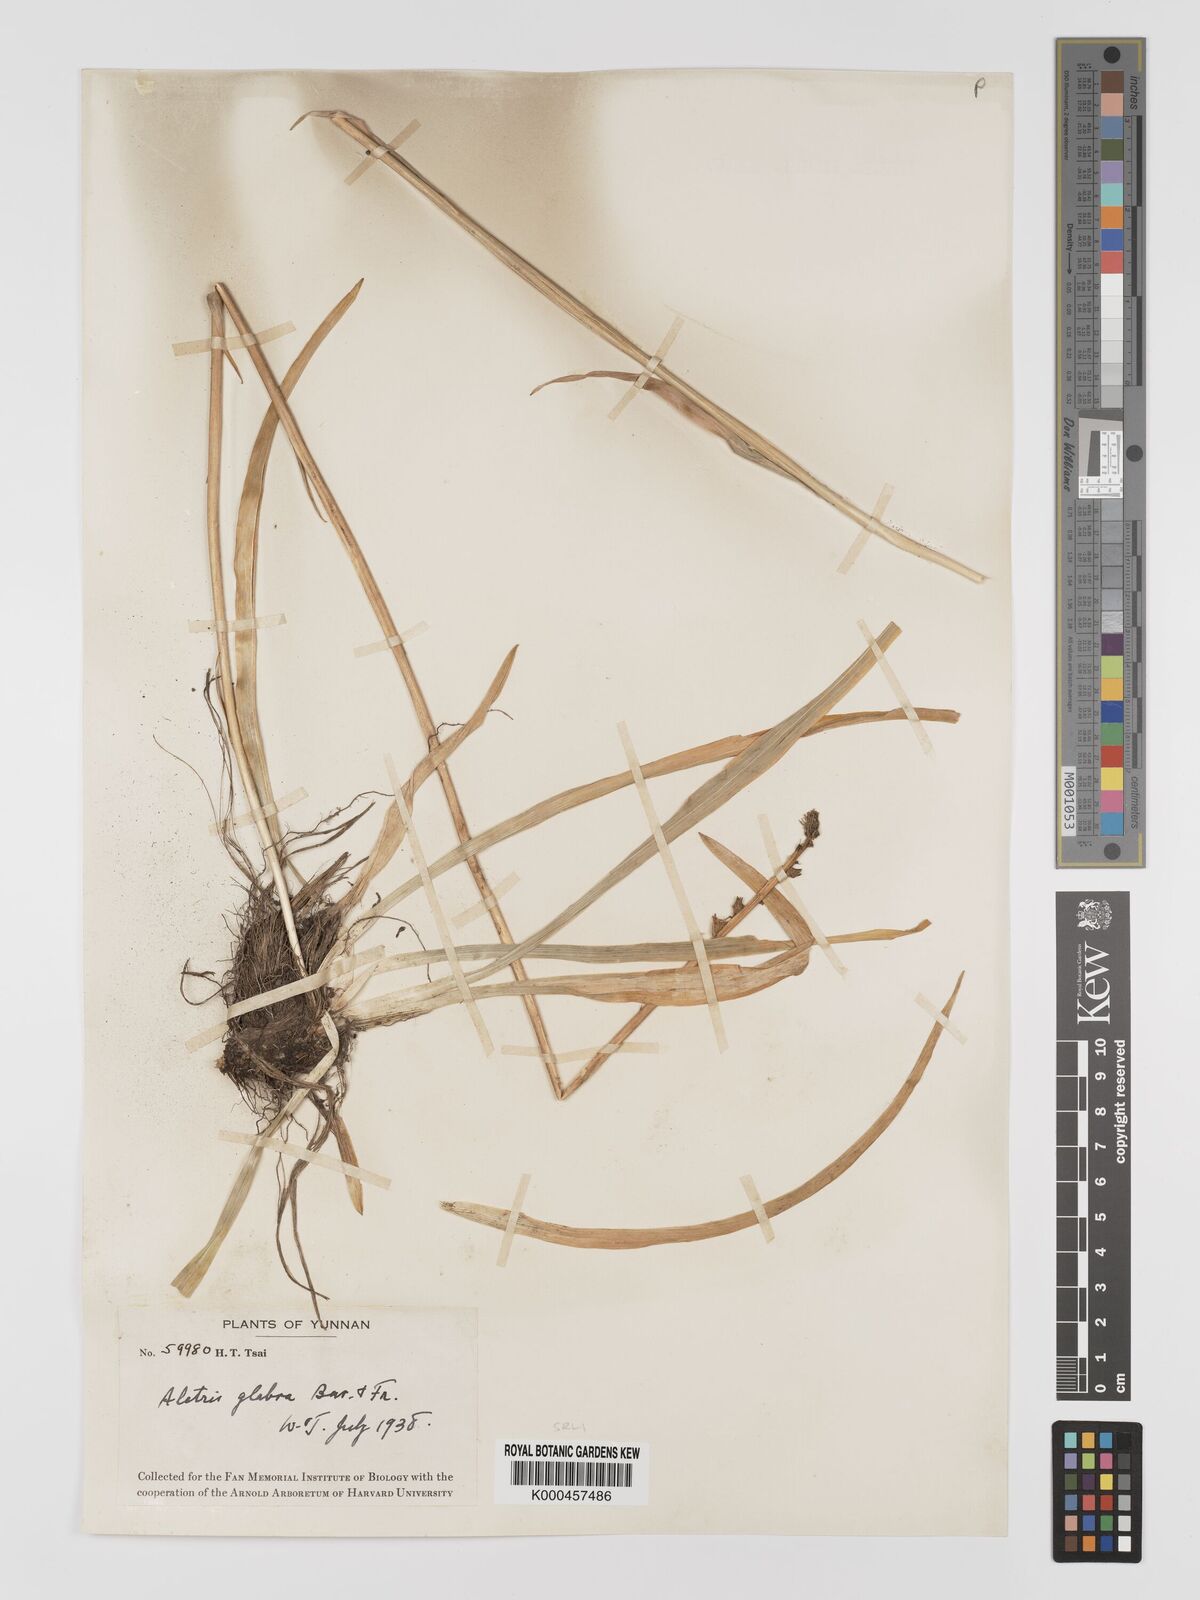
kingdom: Plantae
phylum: Tracheophyta
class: Liliopsida
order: Dioscoreales
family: Nartheciaceae
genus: Aletris
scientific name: Aletris glabra
